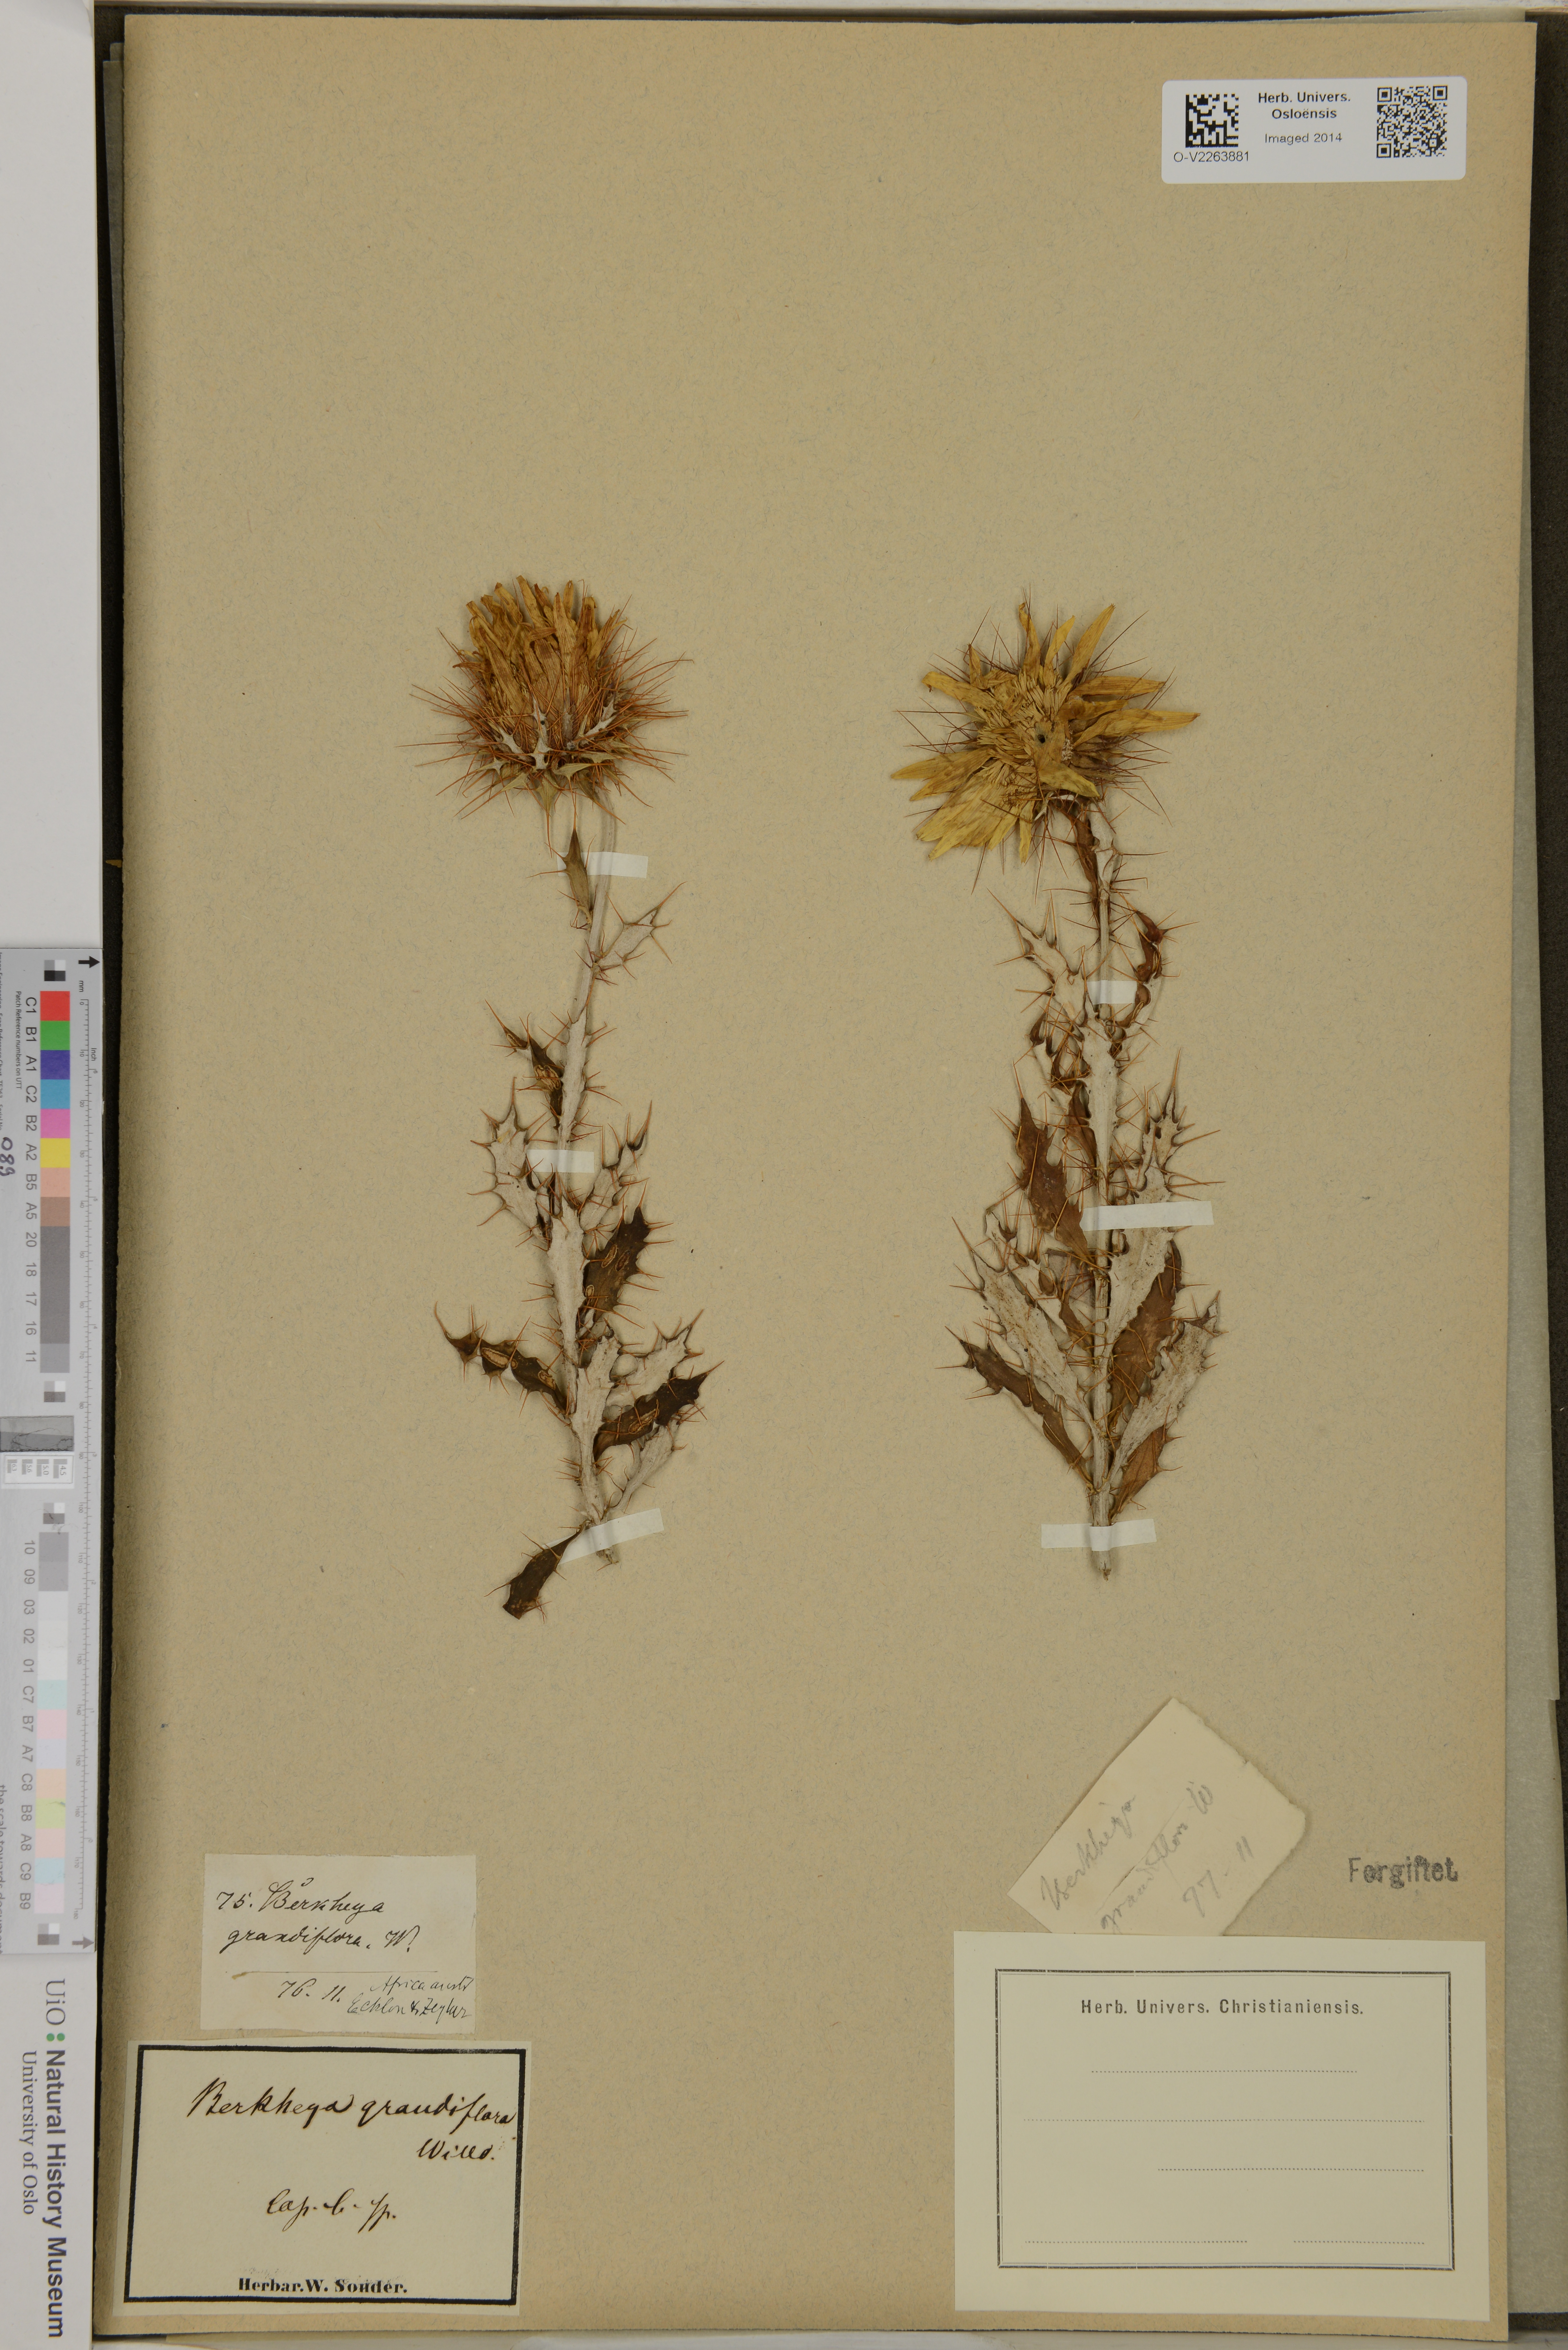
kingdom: Plantae
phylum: Tracheophyta
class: Magnoliopsida
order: Asterales
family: Asteraceae
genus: Berkheya
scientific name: Berkheya barbata
